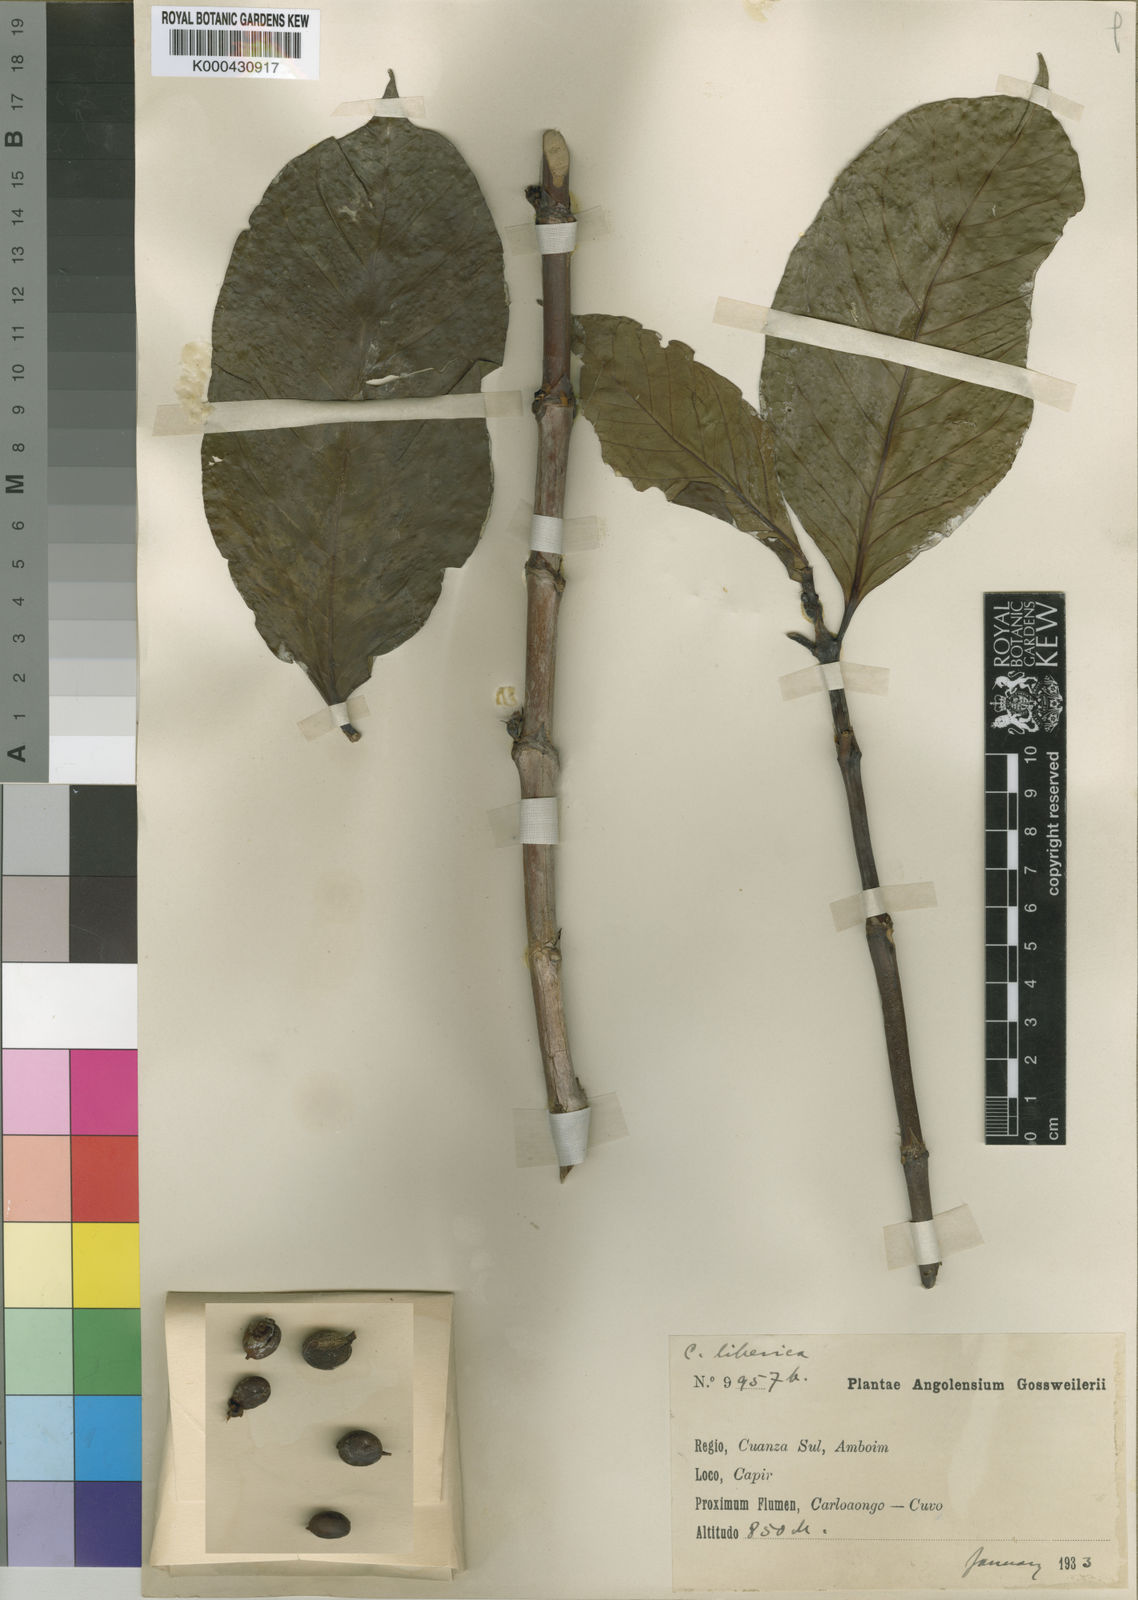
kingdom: Plantae
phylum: Tracheophyta
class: Magnoliopsida
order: Gentianales
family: Rubiaceae
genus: Coffea
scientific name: Coffea canephora
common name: Robusta coffee
